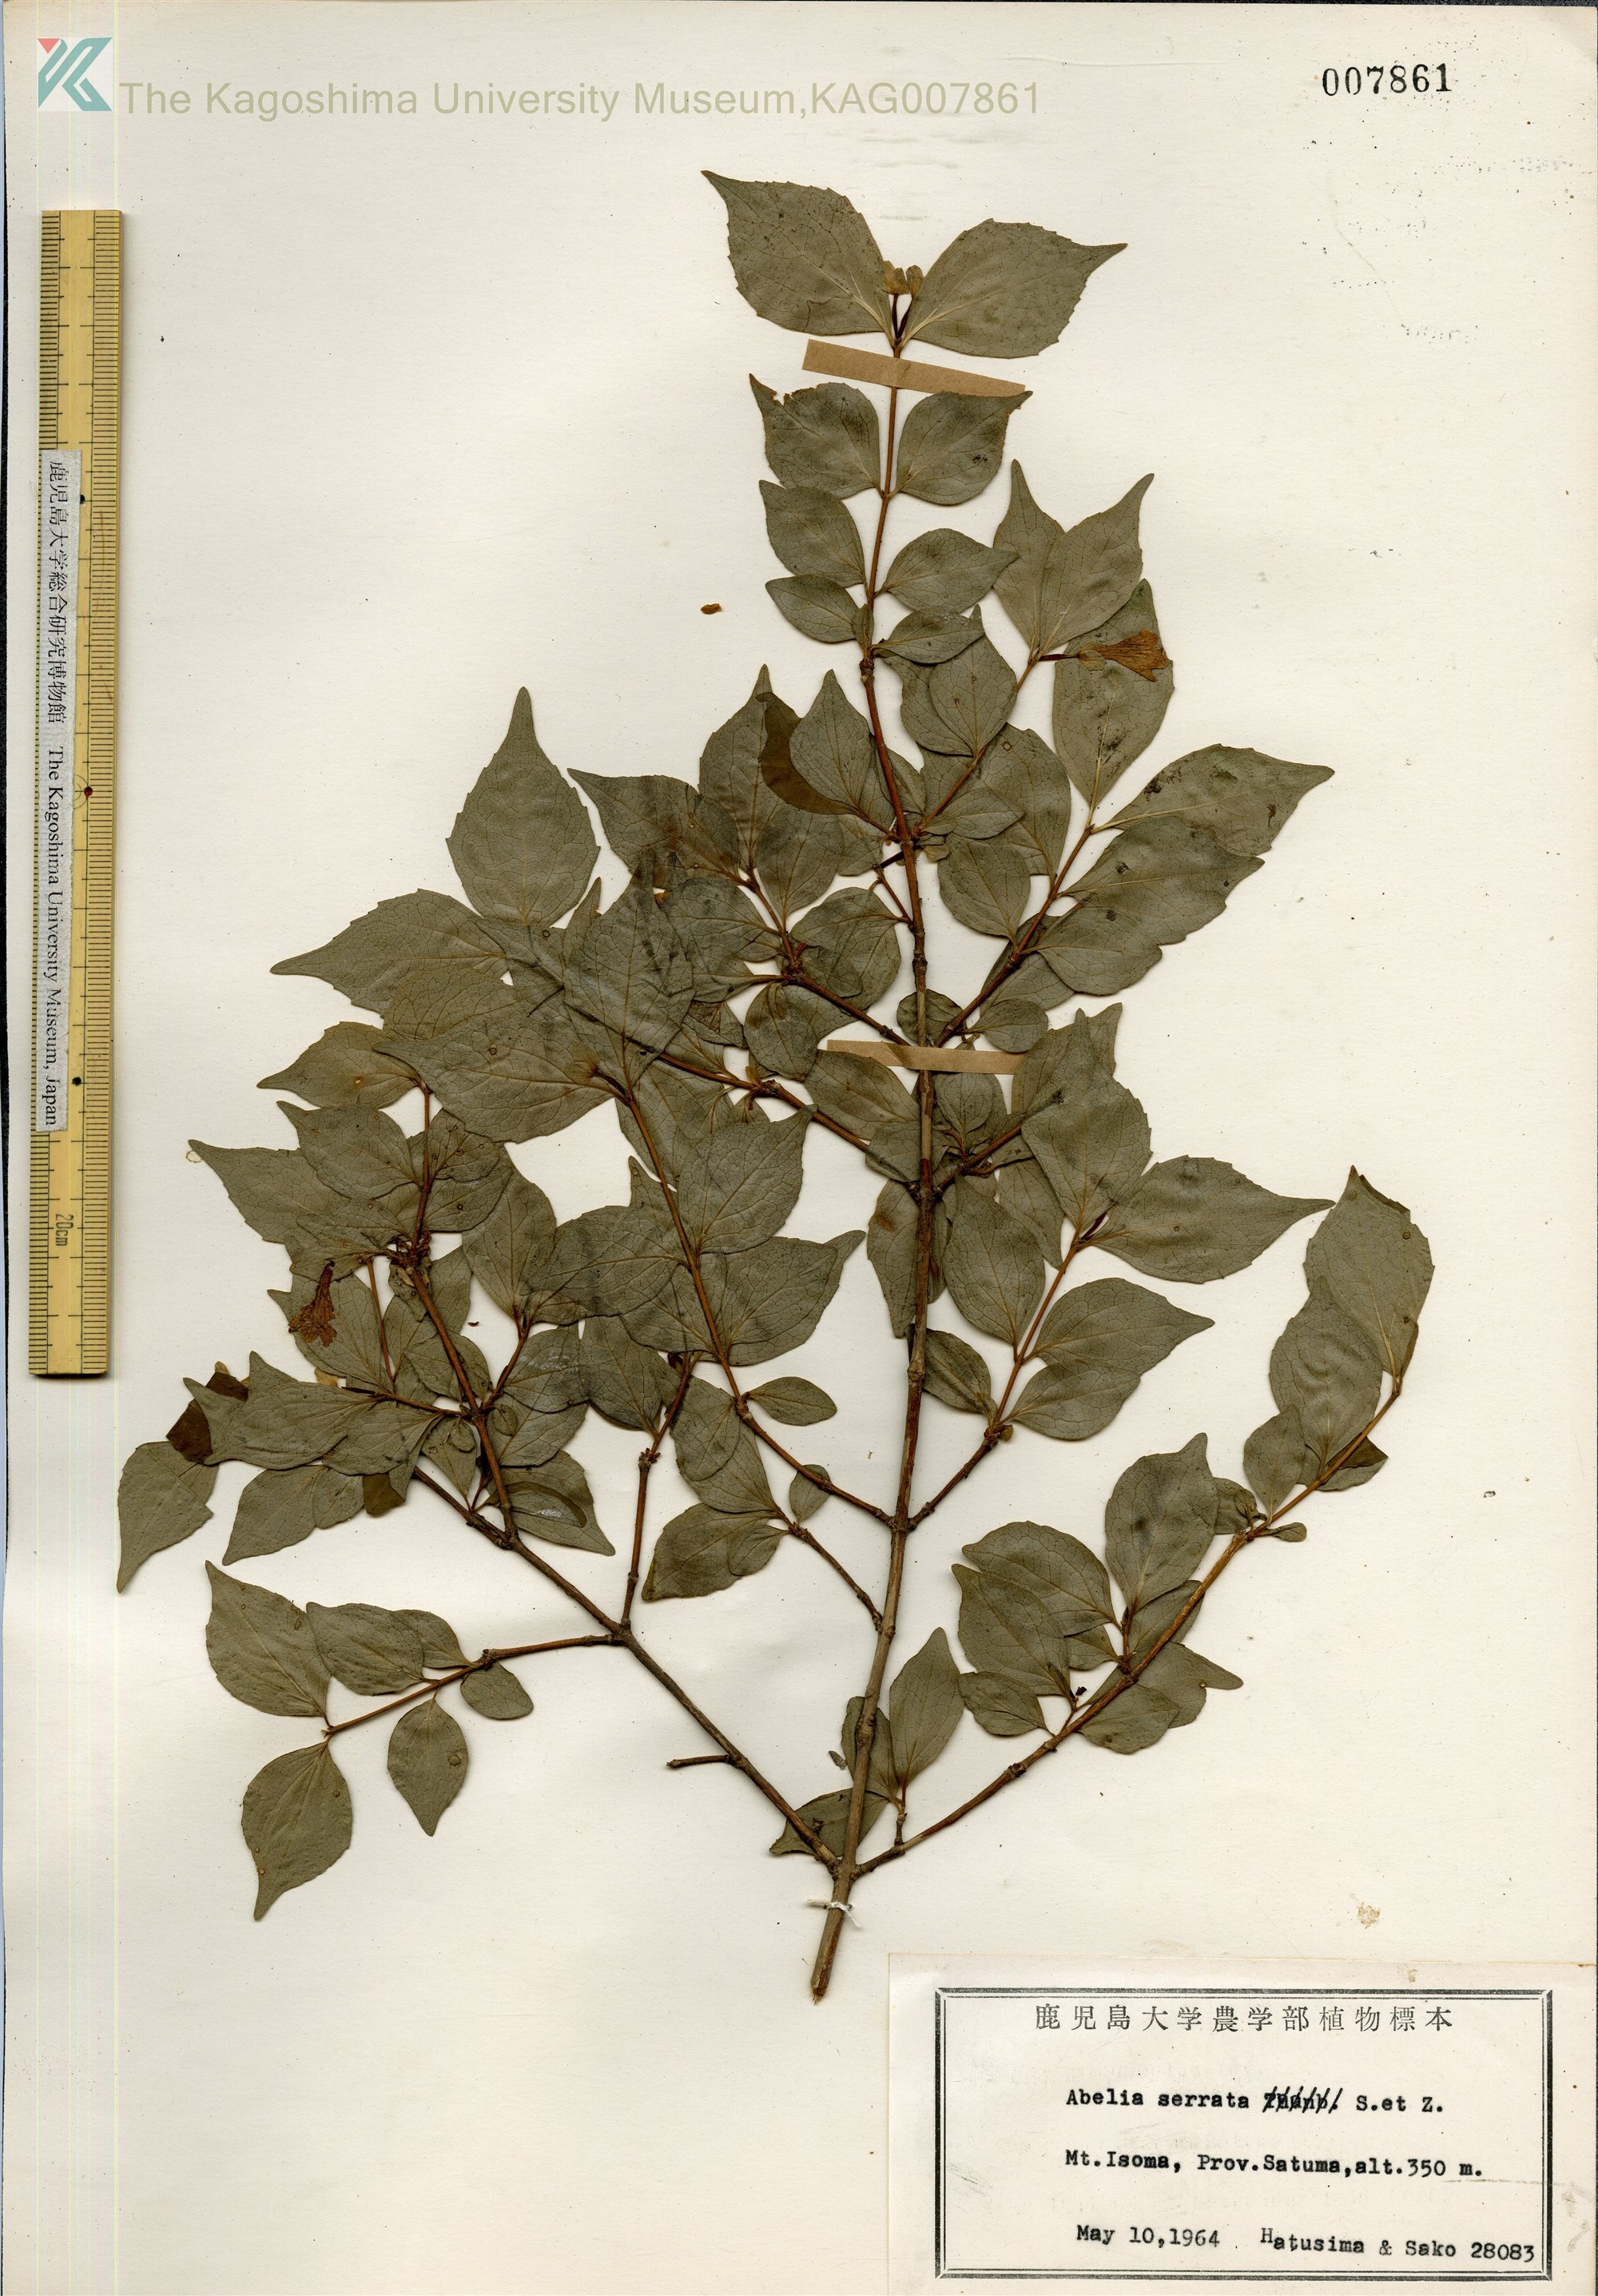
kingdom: Plantae
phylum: Tracheophyta
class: Magnoliopsida
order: Dipsacales
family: Caprifoliaceae
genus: Diabelia
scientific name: Diabelia serrata
